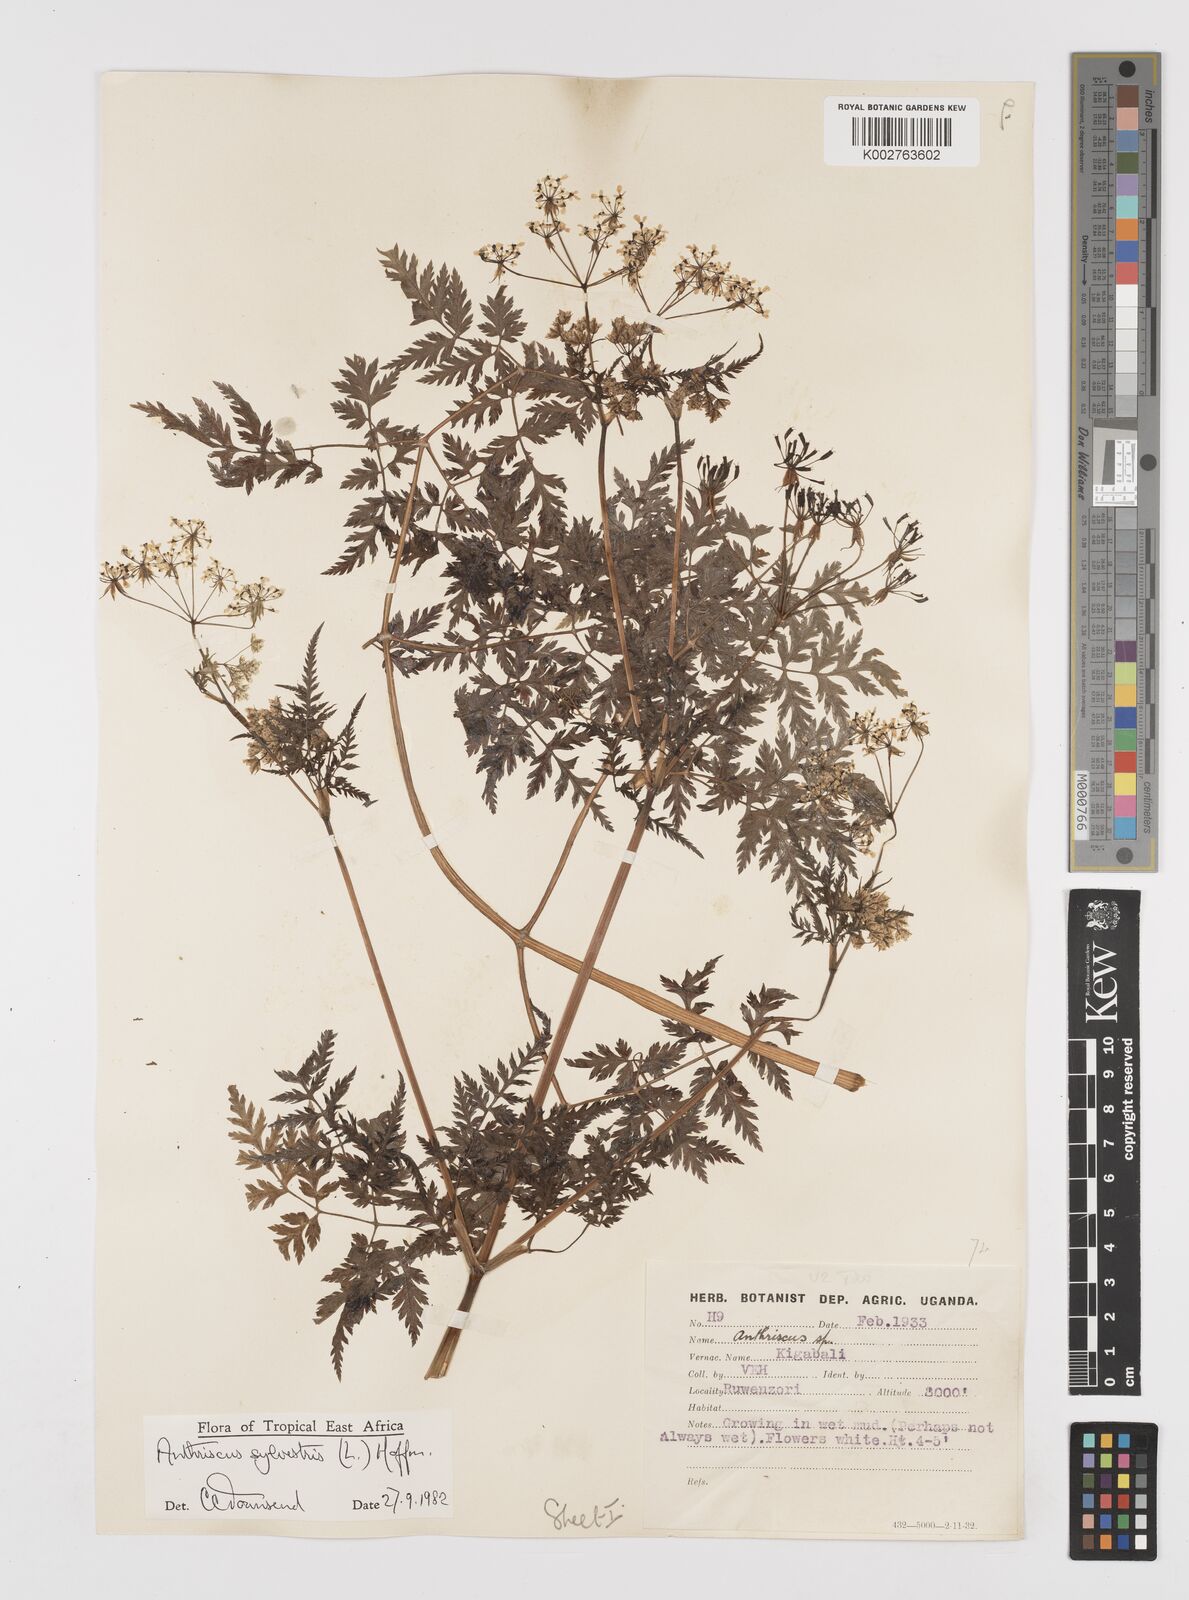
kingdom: Plantae
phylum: Tracheophyta
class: Magnoliopsida
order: Apiales
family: Apiaceae
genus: Anthriscus
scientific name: Anthriscus sylvestris
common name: Cow parsley
